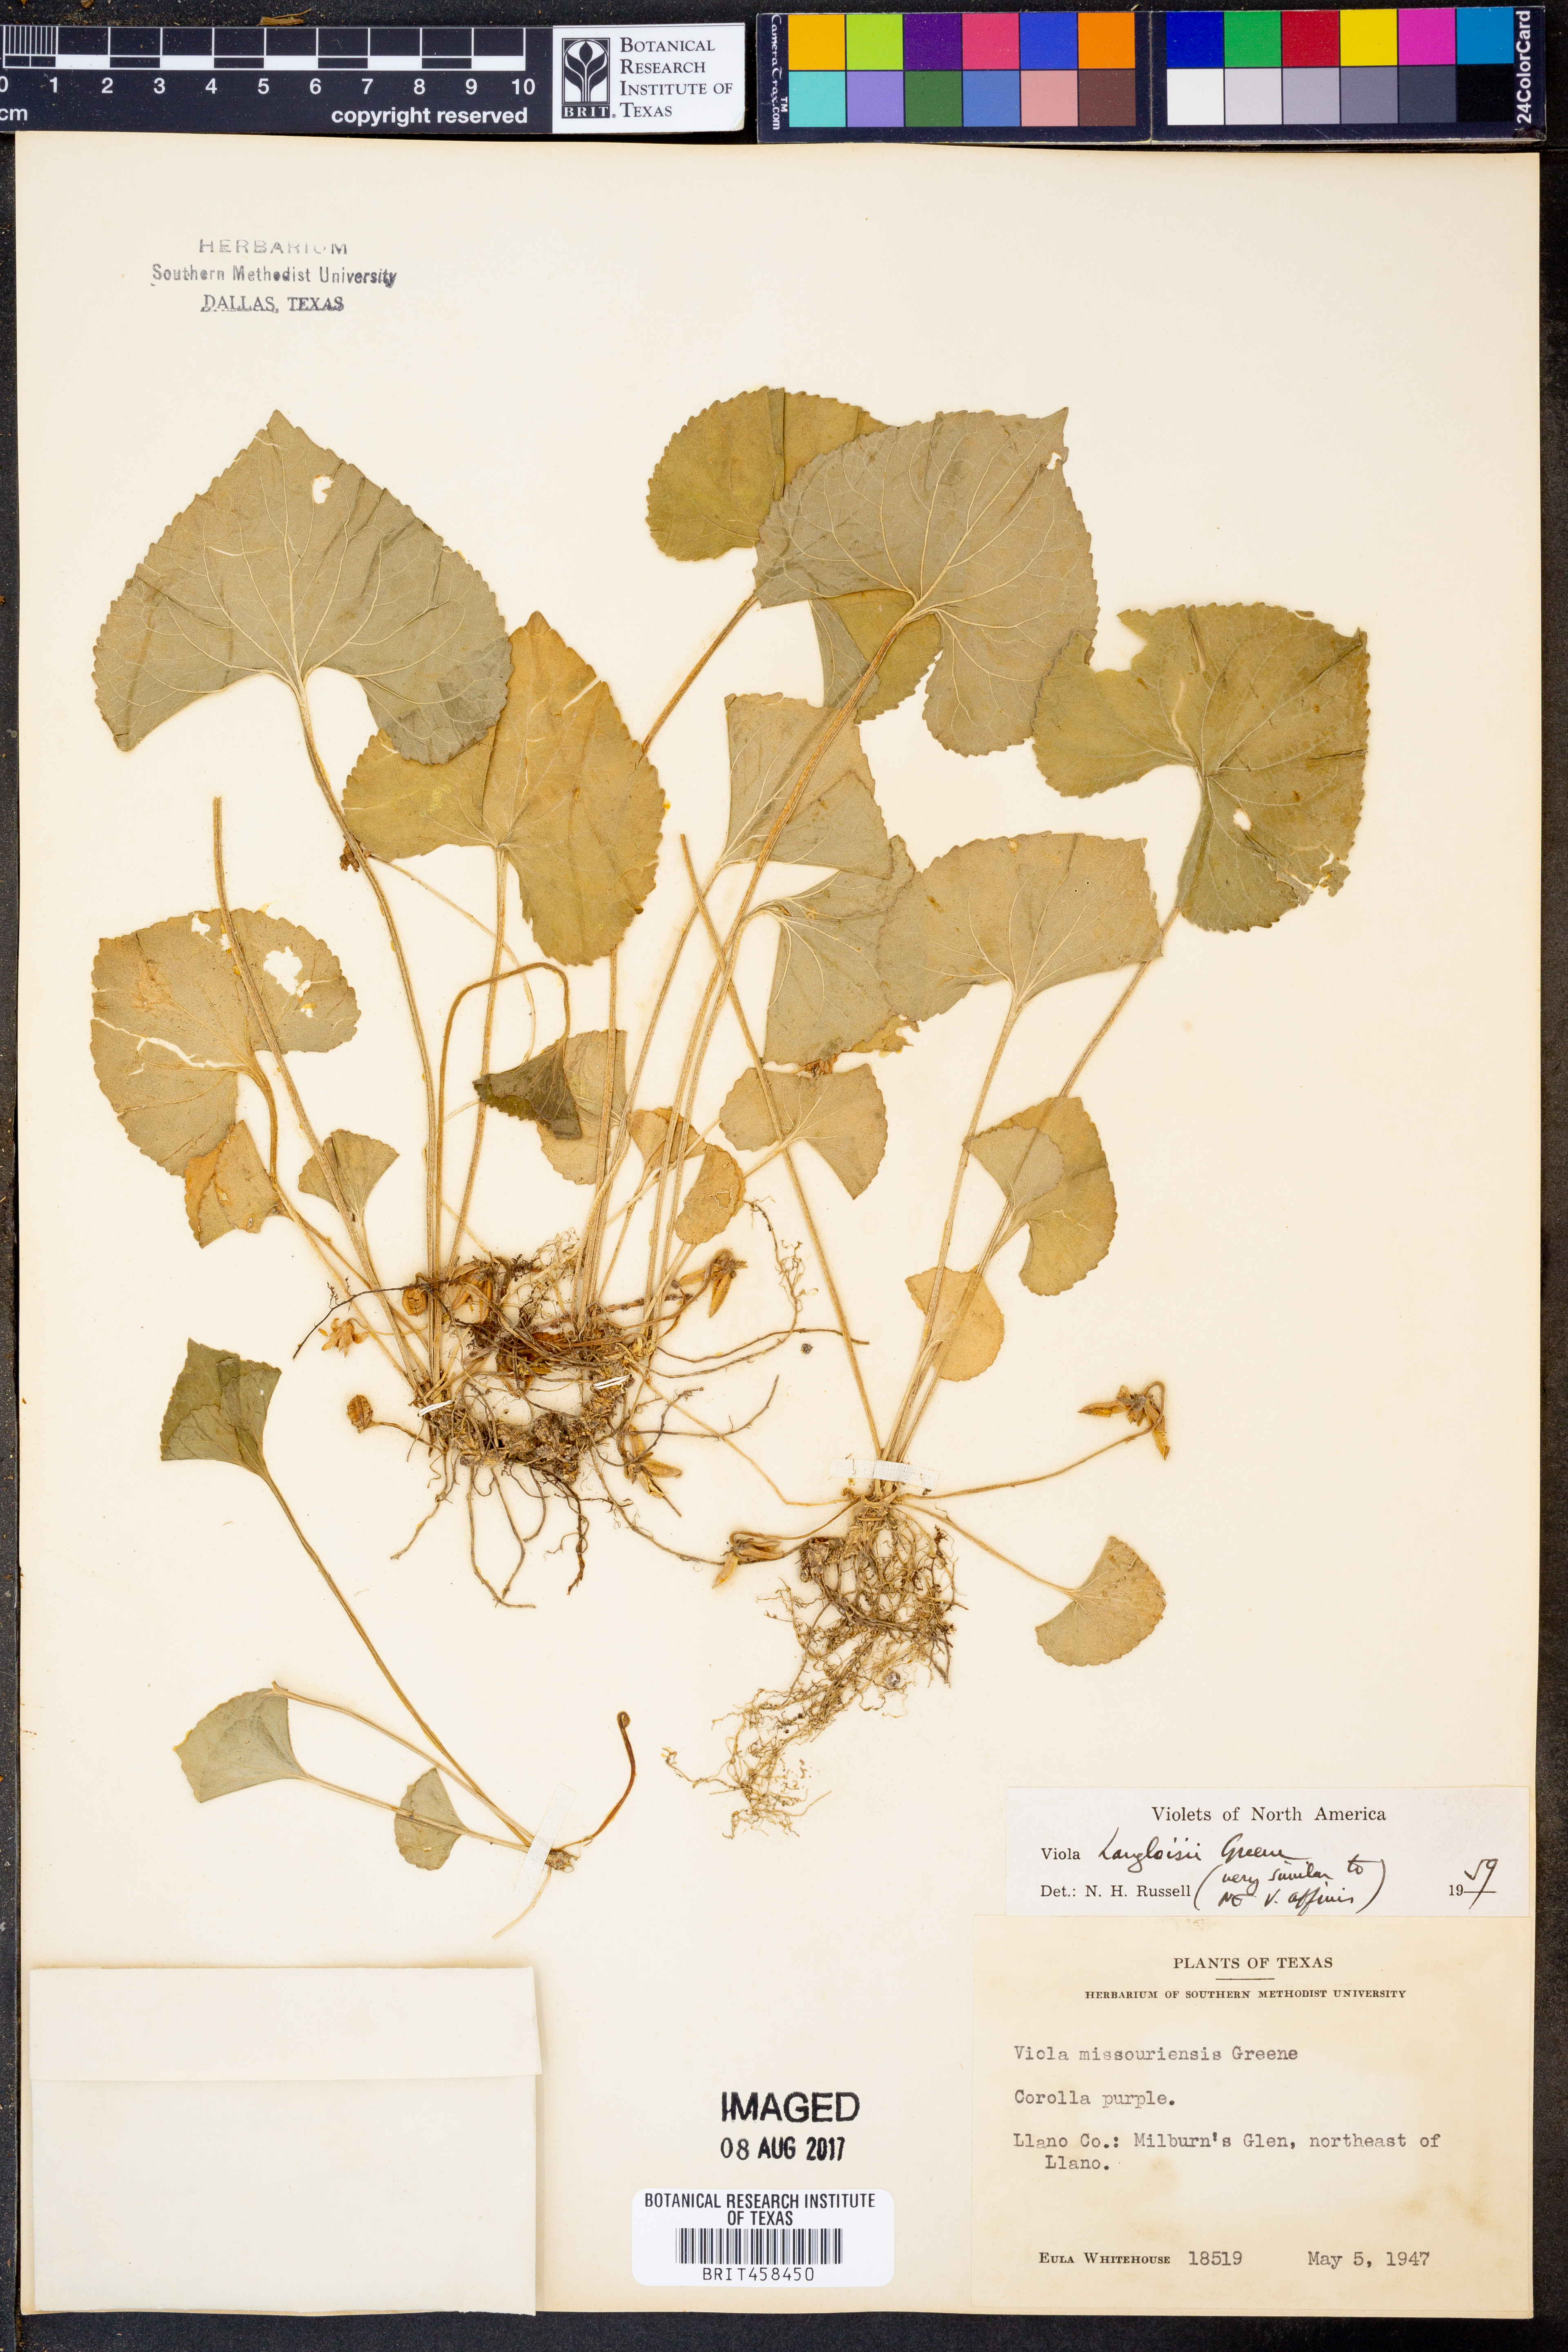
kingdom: Plantae
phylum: Tracheophyta
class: Magnoliopsida
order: Malpighiales
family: Violaceae
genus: Viola
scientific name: Viola langloisii
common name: Langlois' violet
